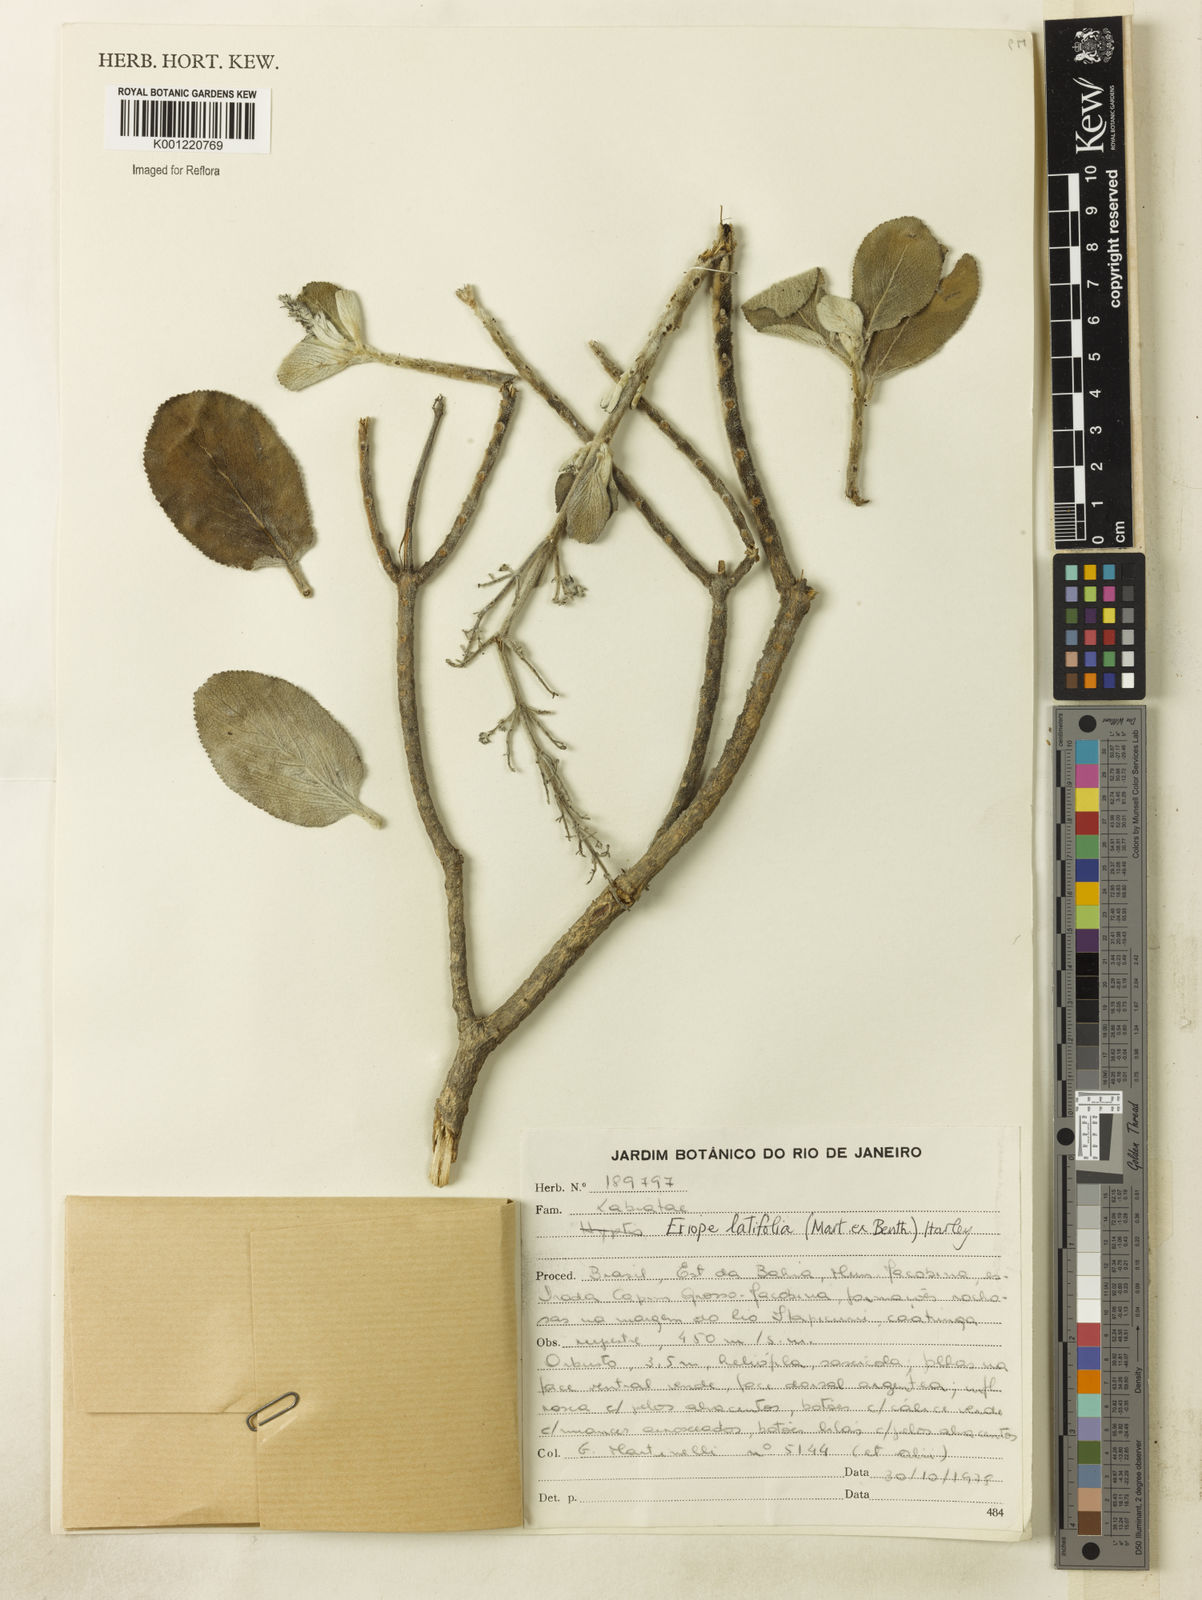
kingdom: Plantae
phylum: Tracheophyta
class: Magnoliopsida
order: Lamiales
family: Lamiaceae
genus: Eriope
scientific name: Eriope latifolia
